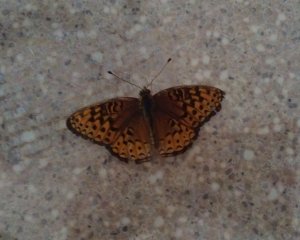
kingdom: Animalia
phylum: Arthropoda
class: Insecta
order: Lepidoptera
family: Nymphalidae
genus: Speyeria
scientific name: Speyeria atlantis
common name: Atlantis Fritillary
